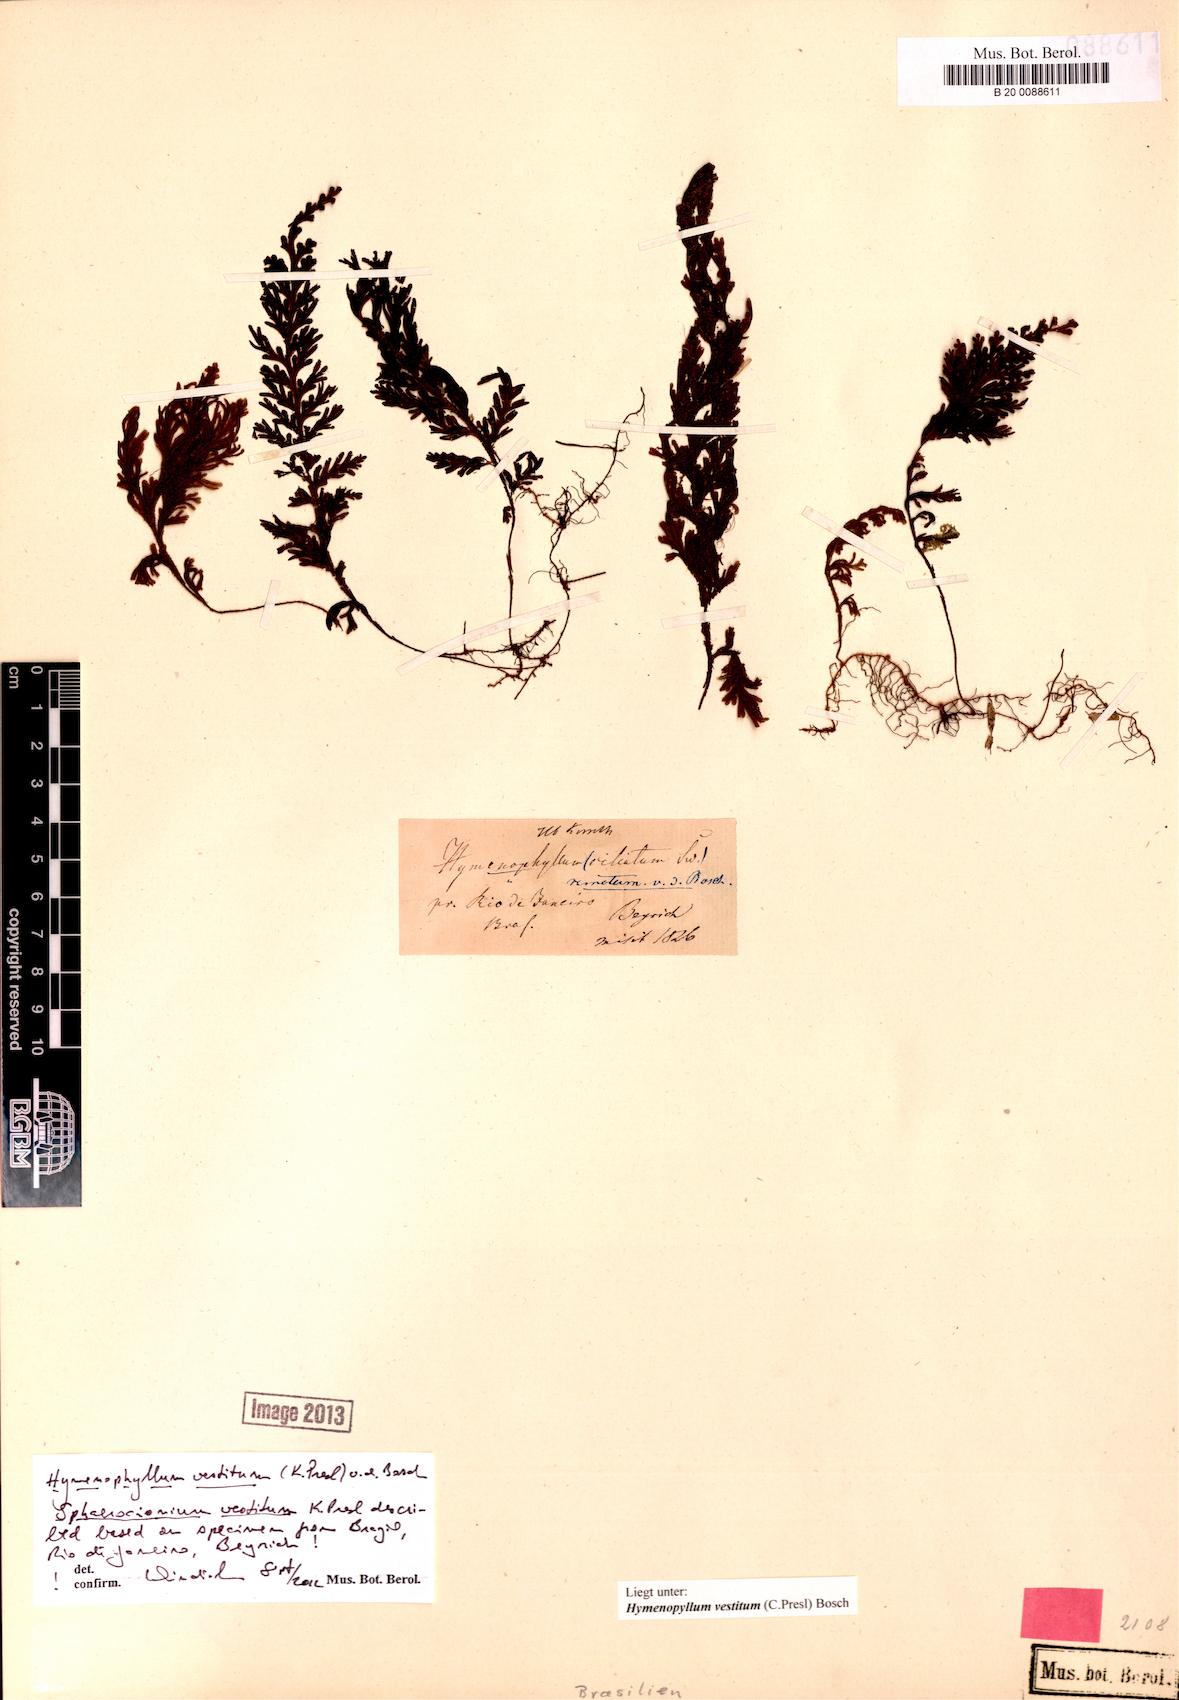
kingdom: Plantae
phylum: Tracheophyta
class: Polypodiopsida
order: Hymenophyllales
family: Hymenophyllaceae
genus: Hymenophyllum
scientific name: Hymenophyllum vestitum
